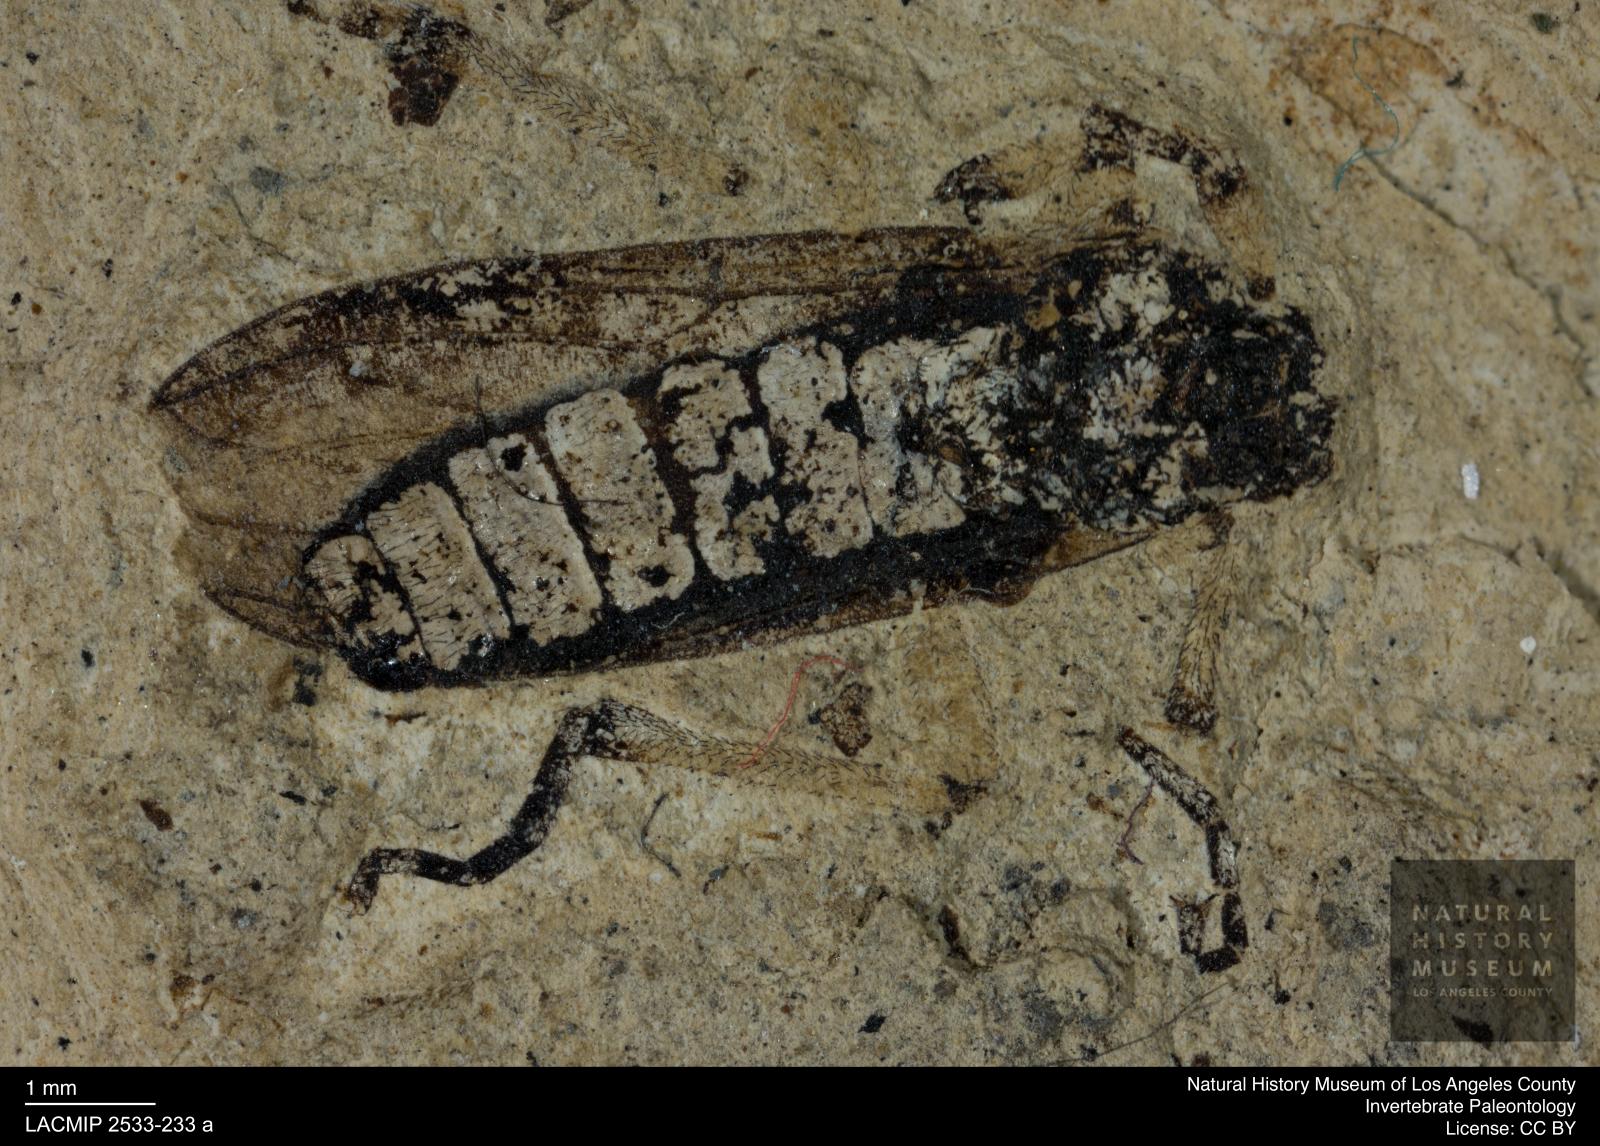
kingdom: Animalia
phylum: Arthropoda
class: Insecta
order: Diptera
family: Bibionidae
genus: Bibio
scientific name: Bibio auripes
